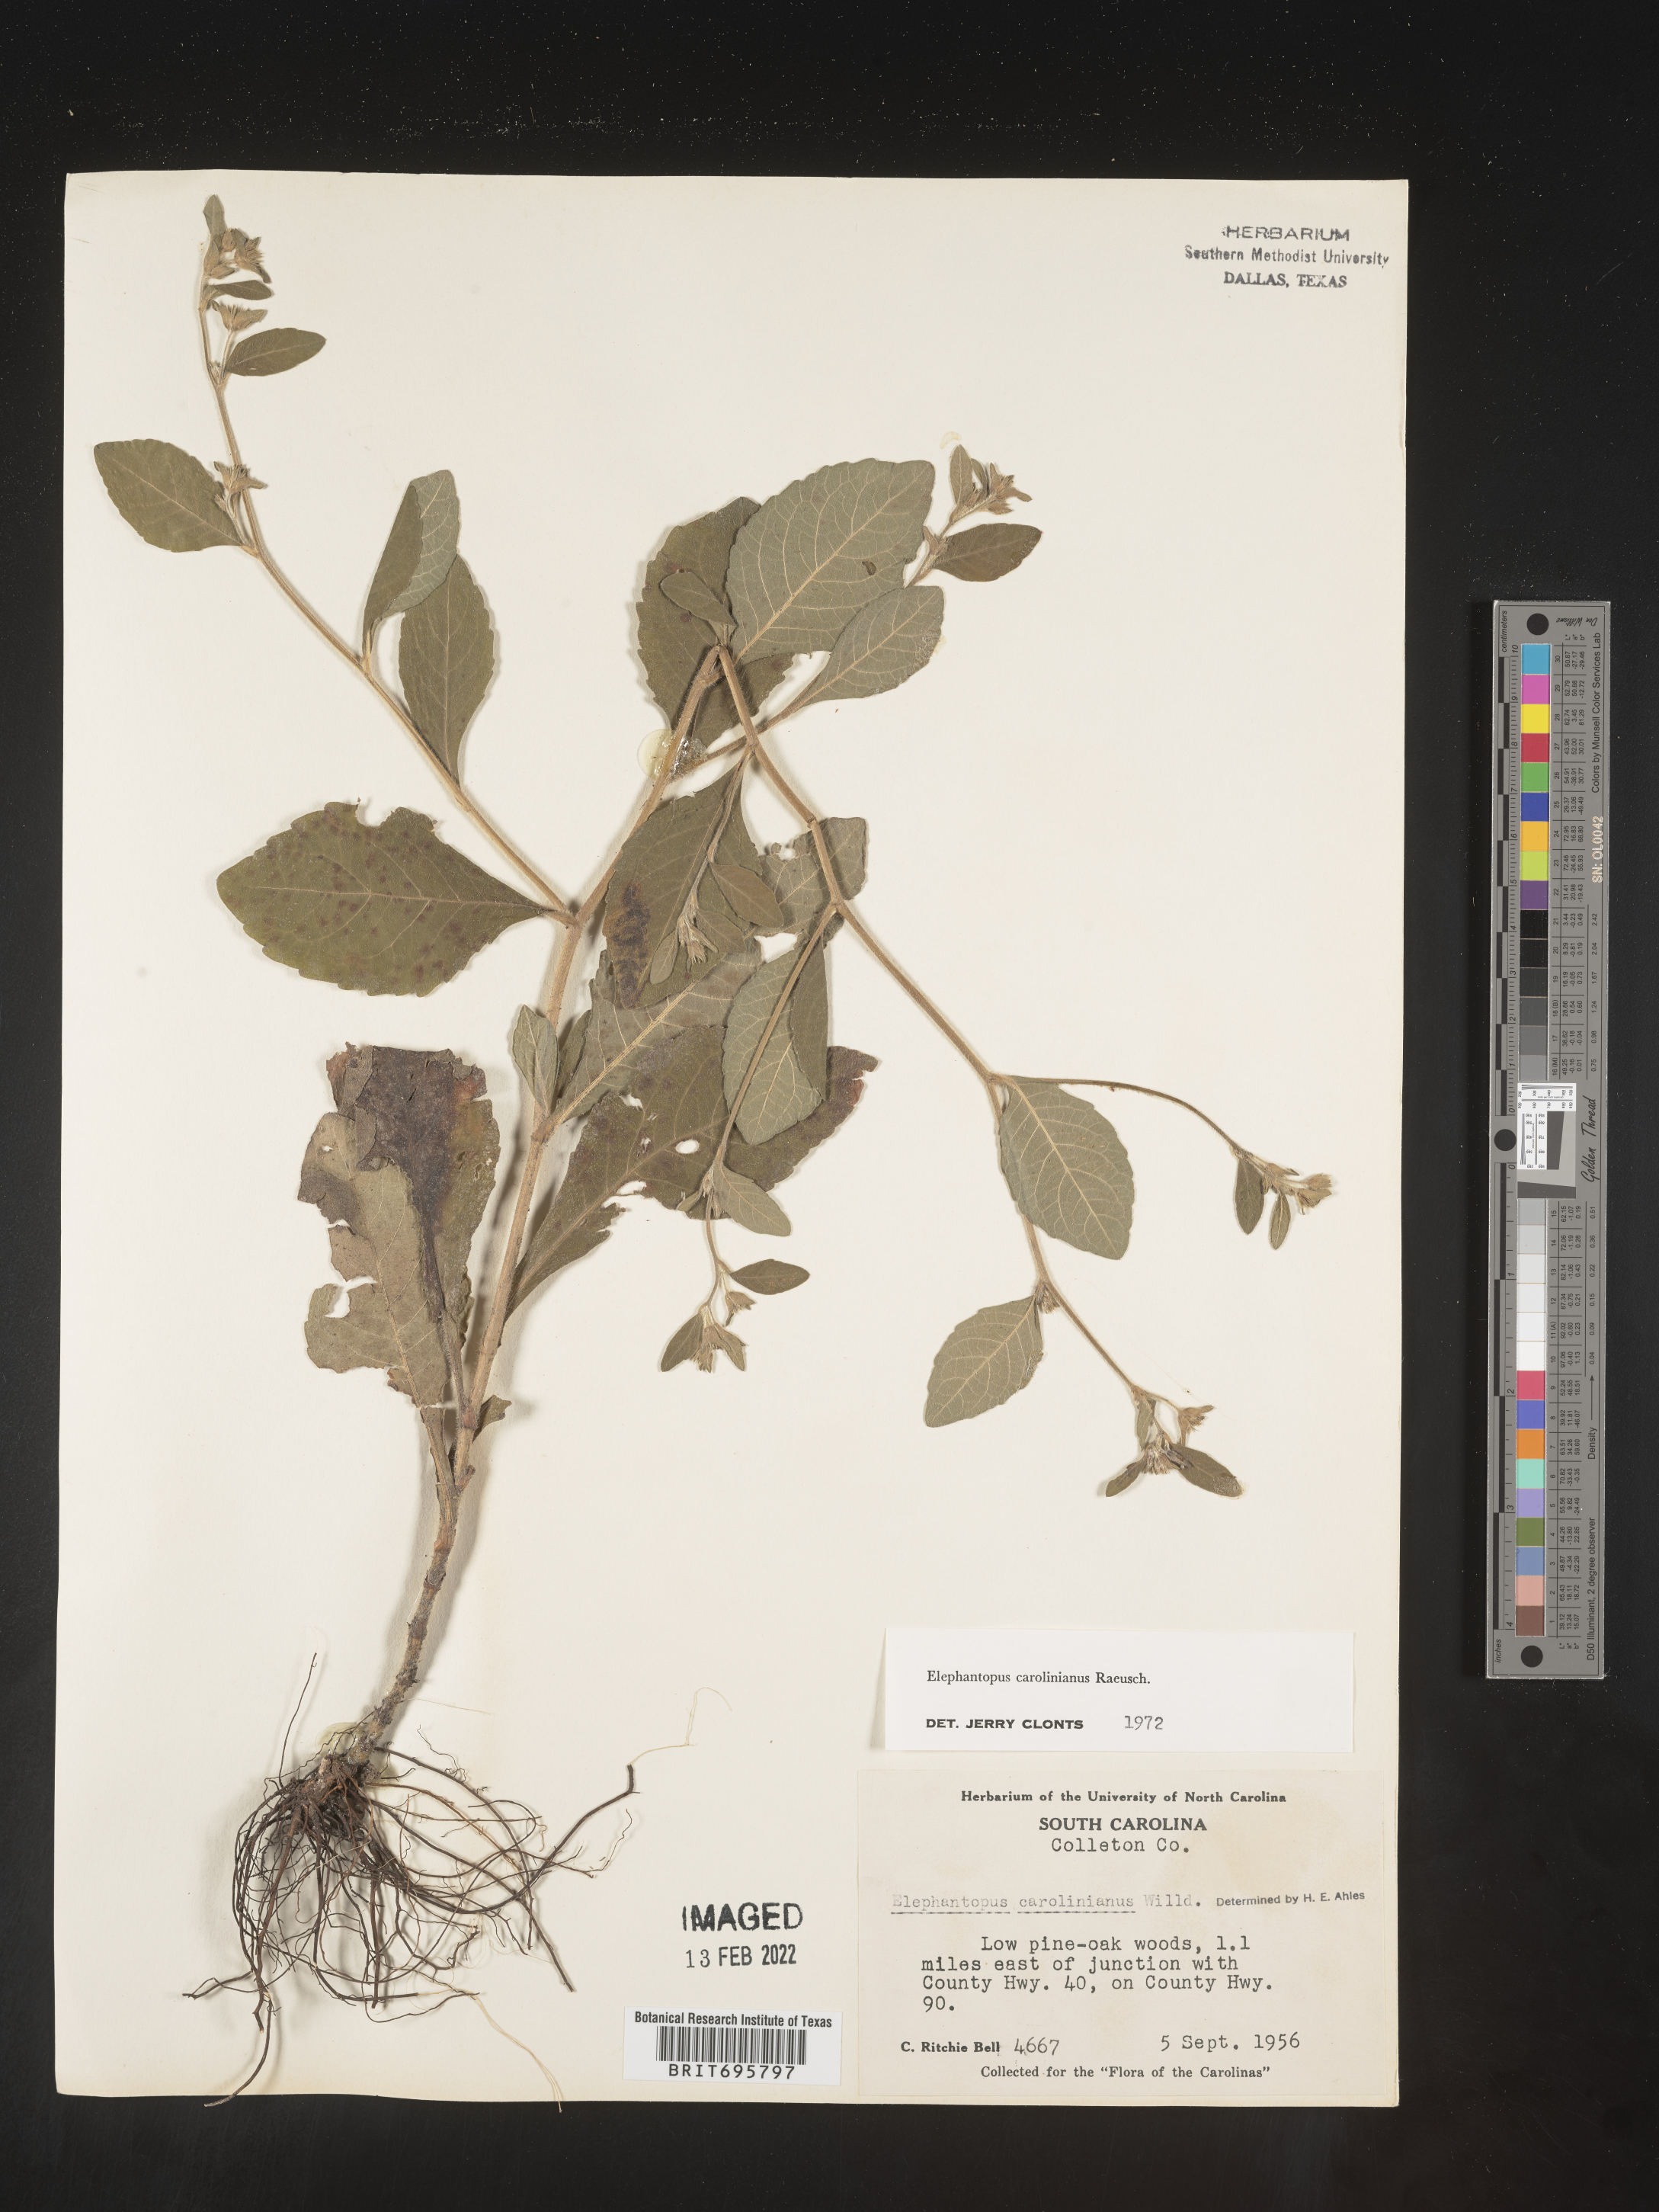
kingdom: Plantae
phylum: Tracheophyta
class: Magnoliopsida
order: Asterales
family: Asteraceae
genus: Elephantopus
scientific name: Elephantopus carolinianus
